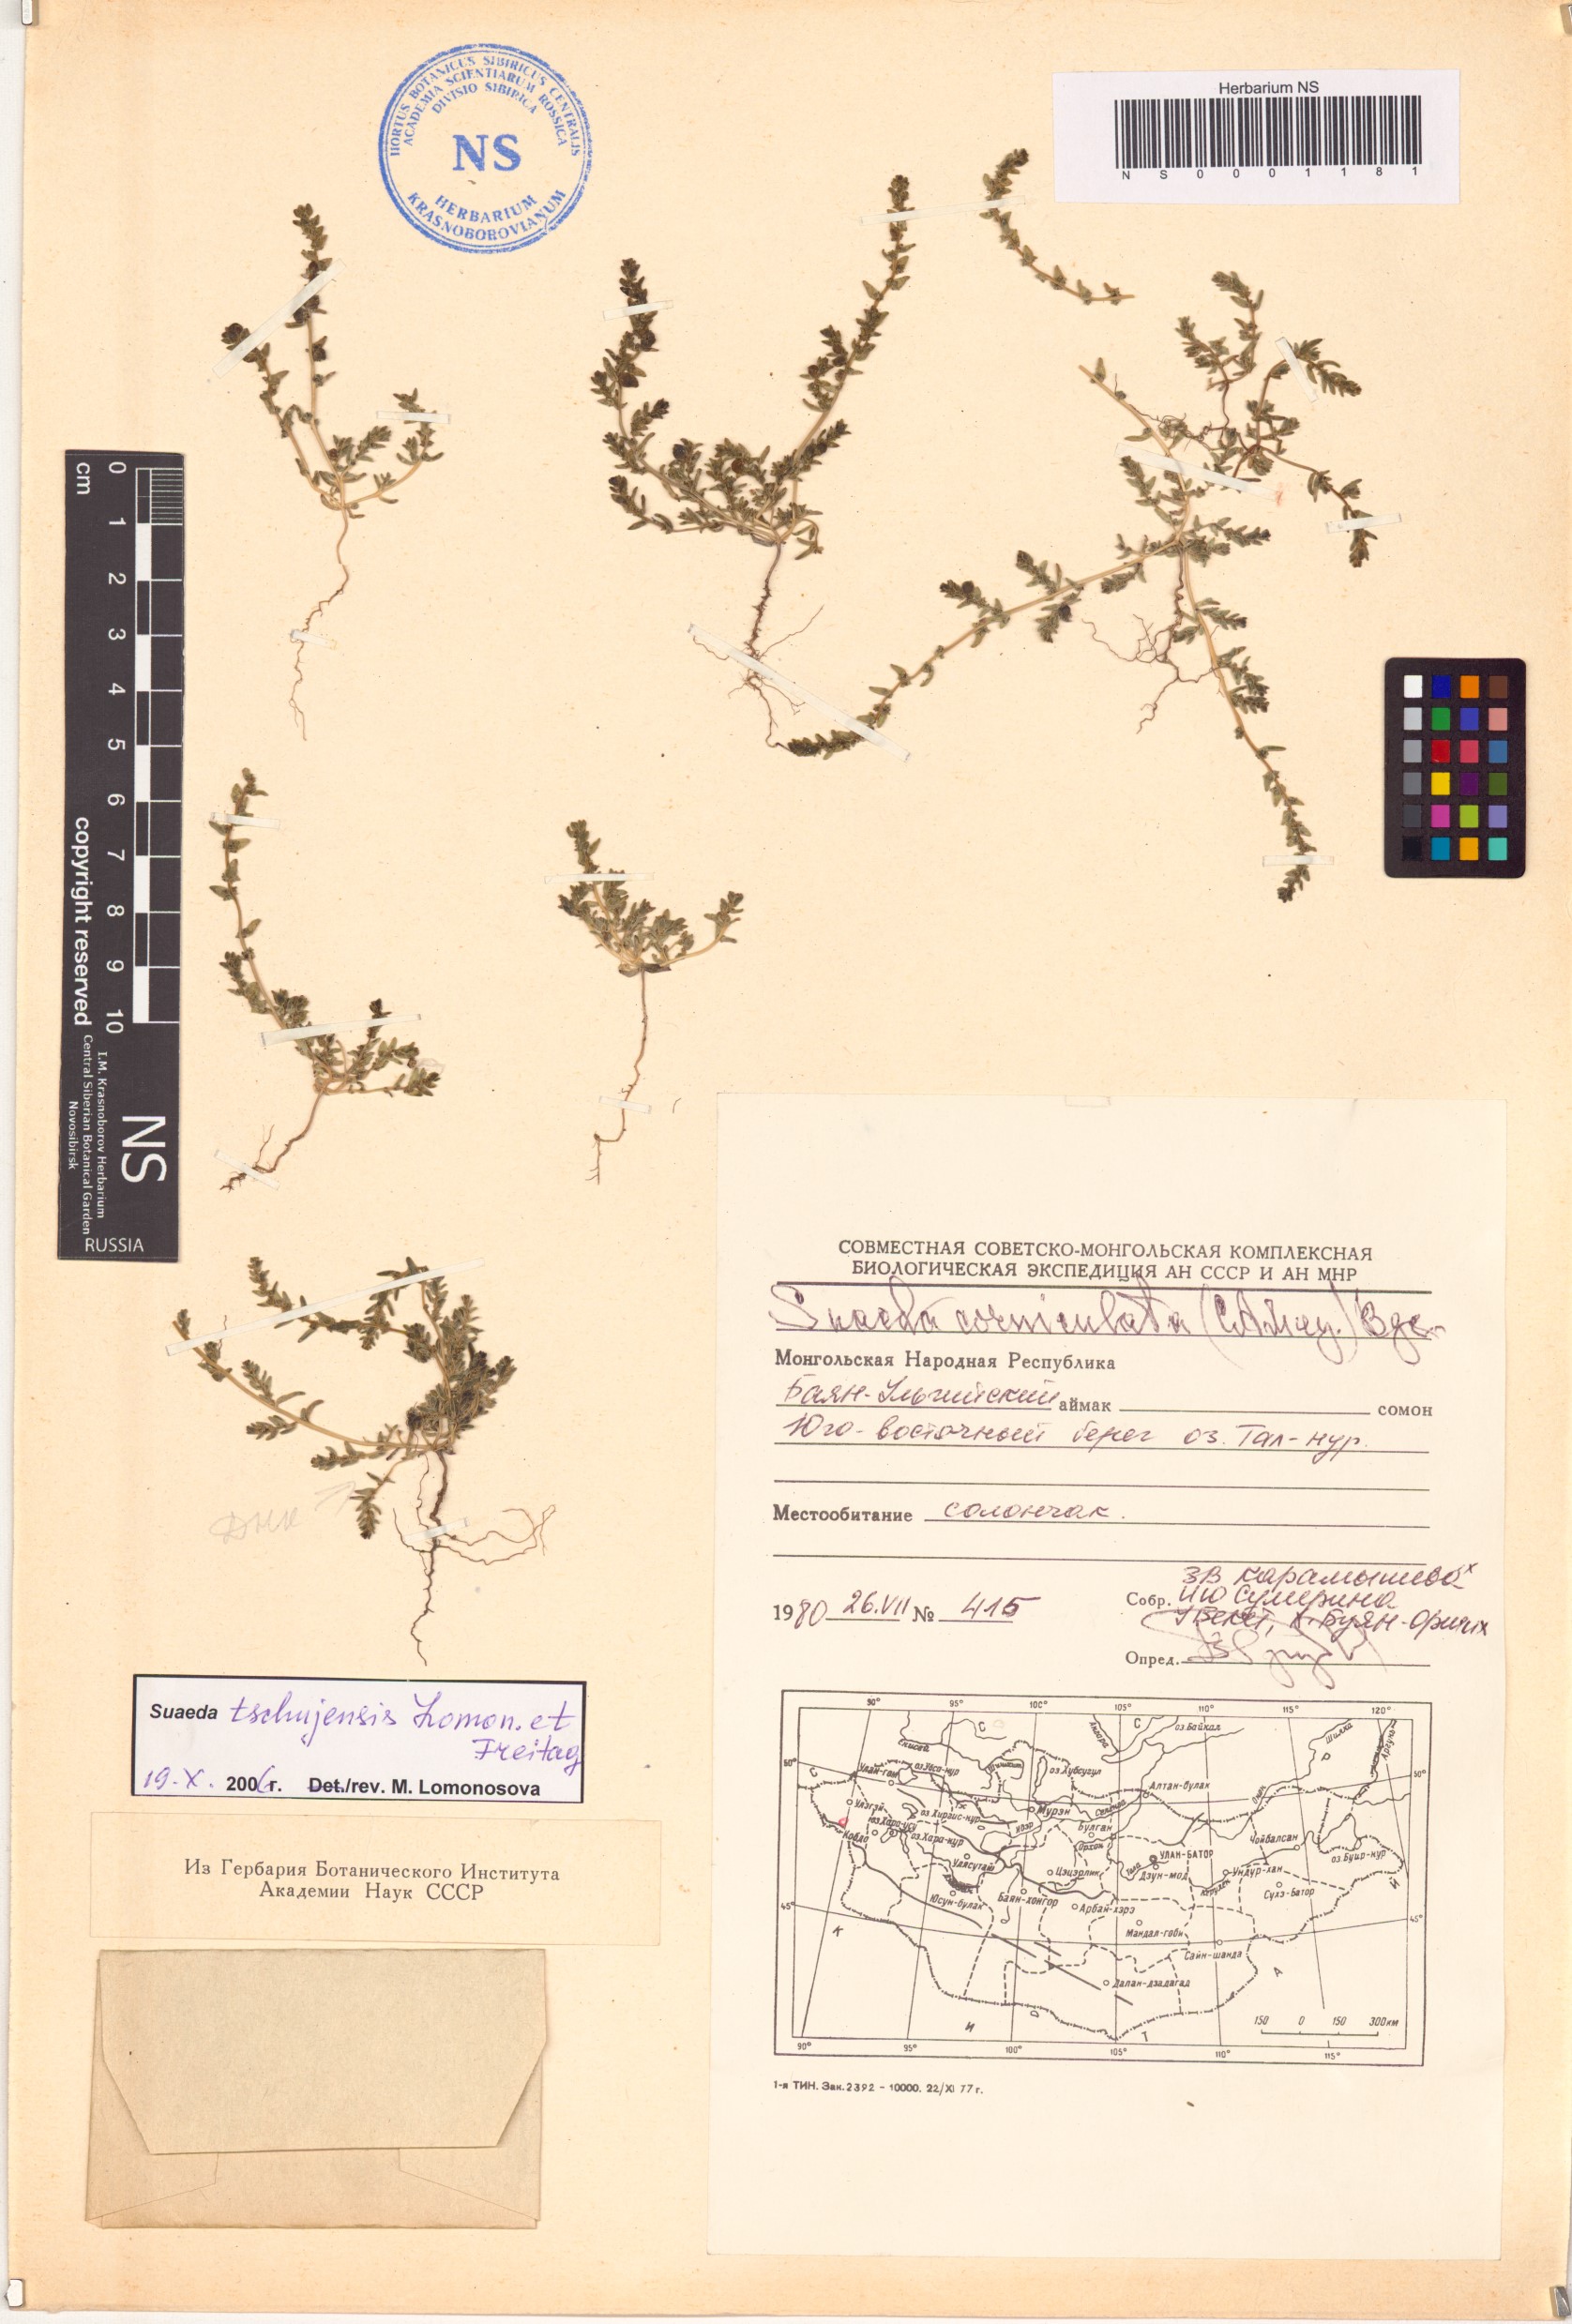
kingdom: Plantae
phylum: Tracheophyta
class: Magnoliopsida
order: Caryophyllales
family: Amaranthaceae
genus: Suaeda
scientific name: Suaeda tschujensis
